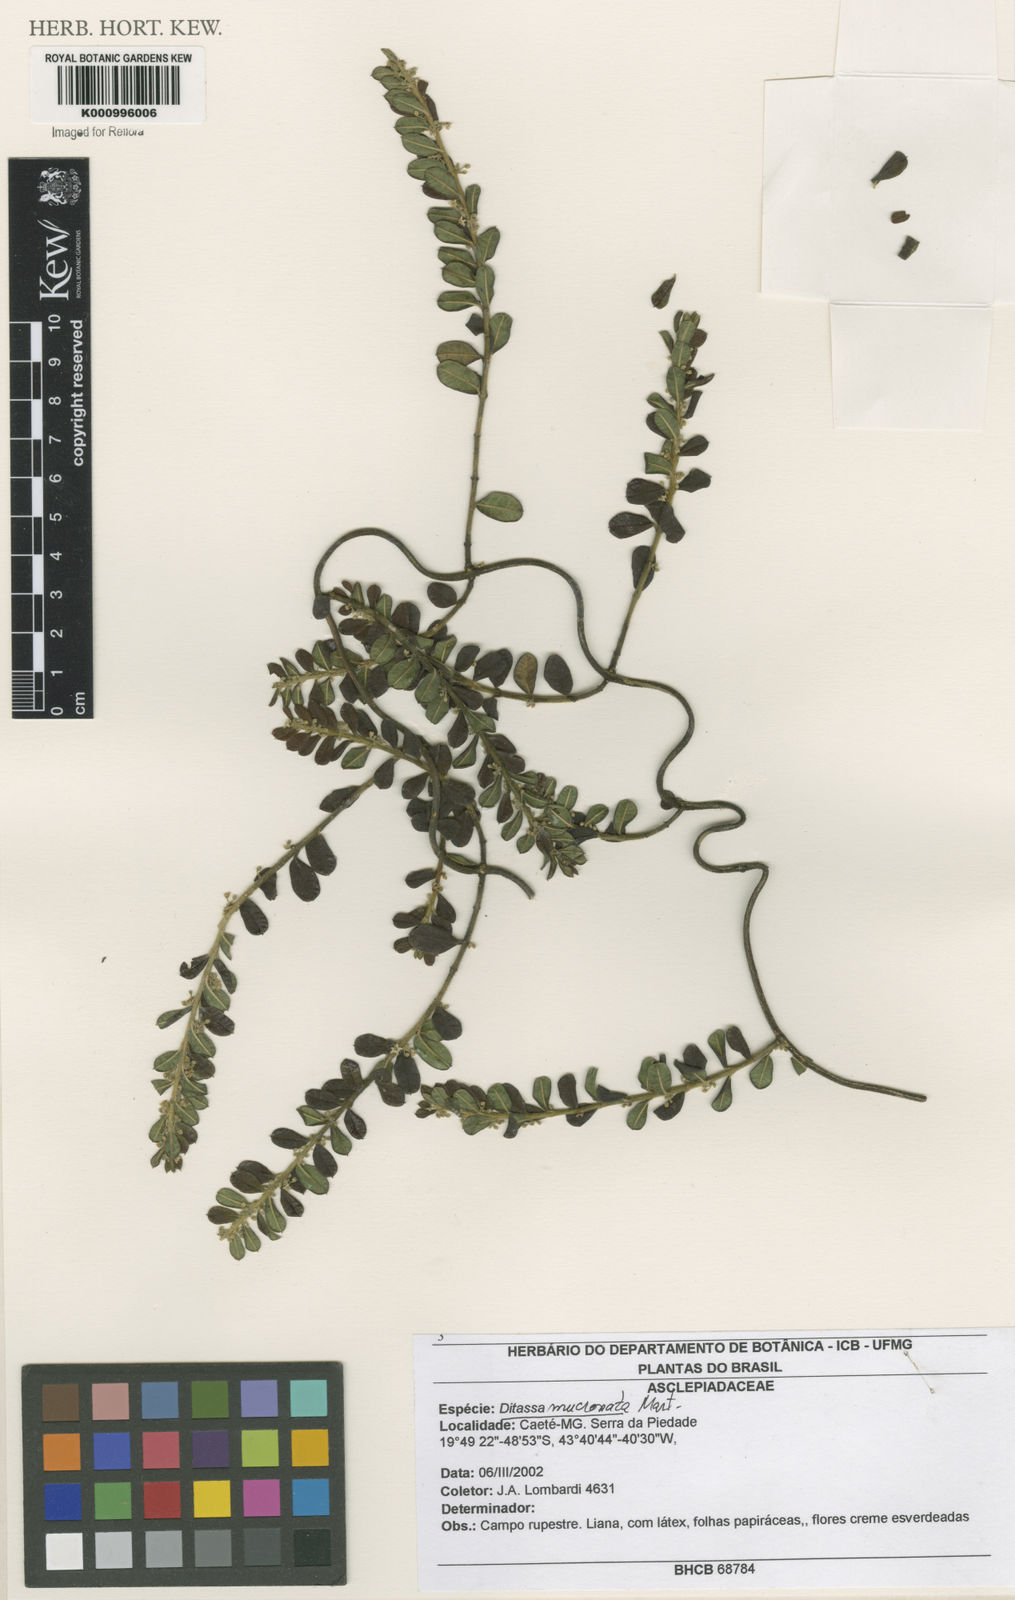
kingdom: Plantae
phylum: Tracheophyta
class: Magnoliopsida
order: Gentianales
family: Apocynaceae
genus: Ditassa
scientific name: Ditassa mucronata
